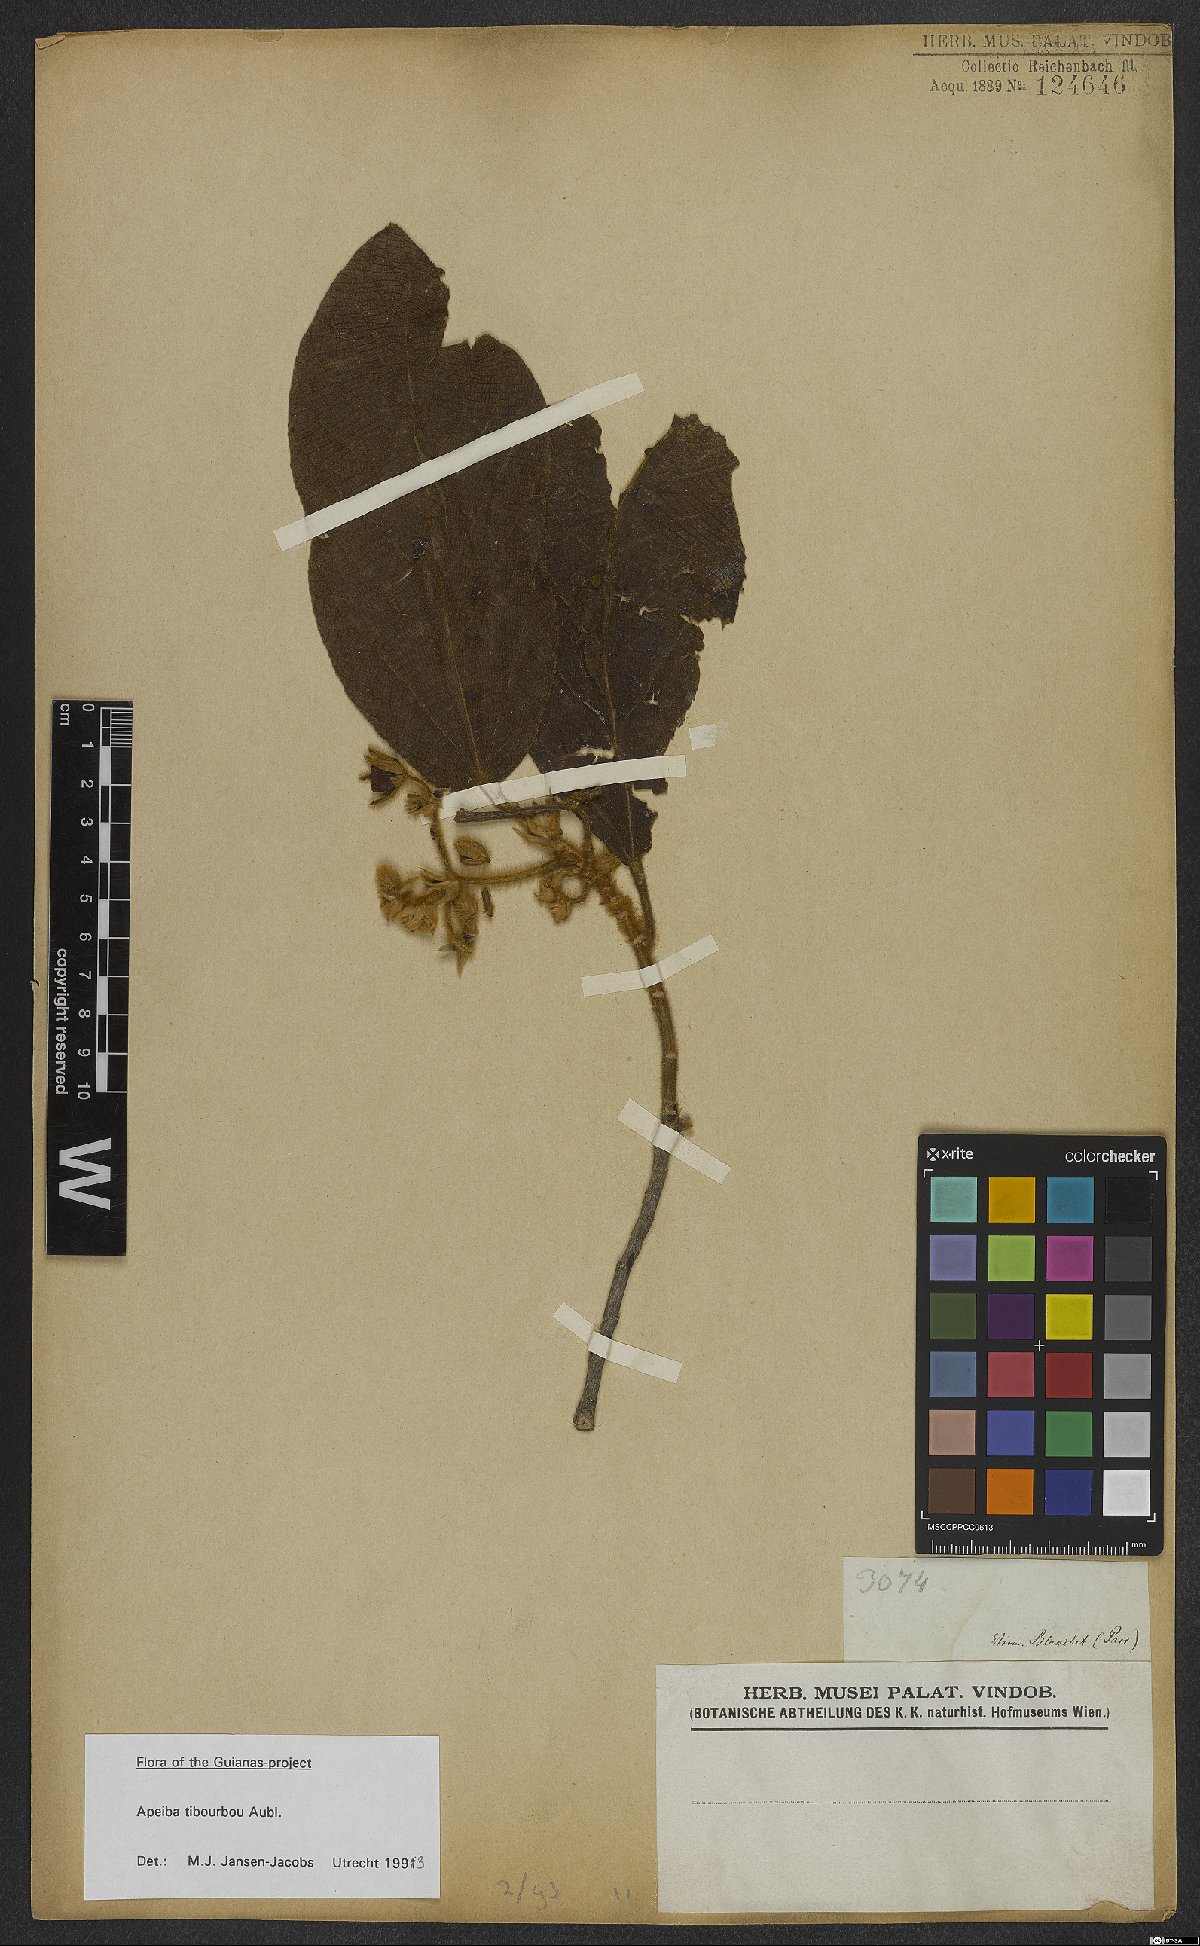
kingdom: Plantae
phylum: Tracheophyta
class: Magnoliopsida
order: Malvales
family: Malvaceae
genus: Apeiba
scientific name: Apeiba tibourbou
